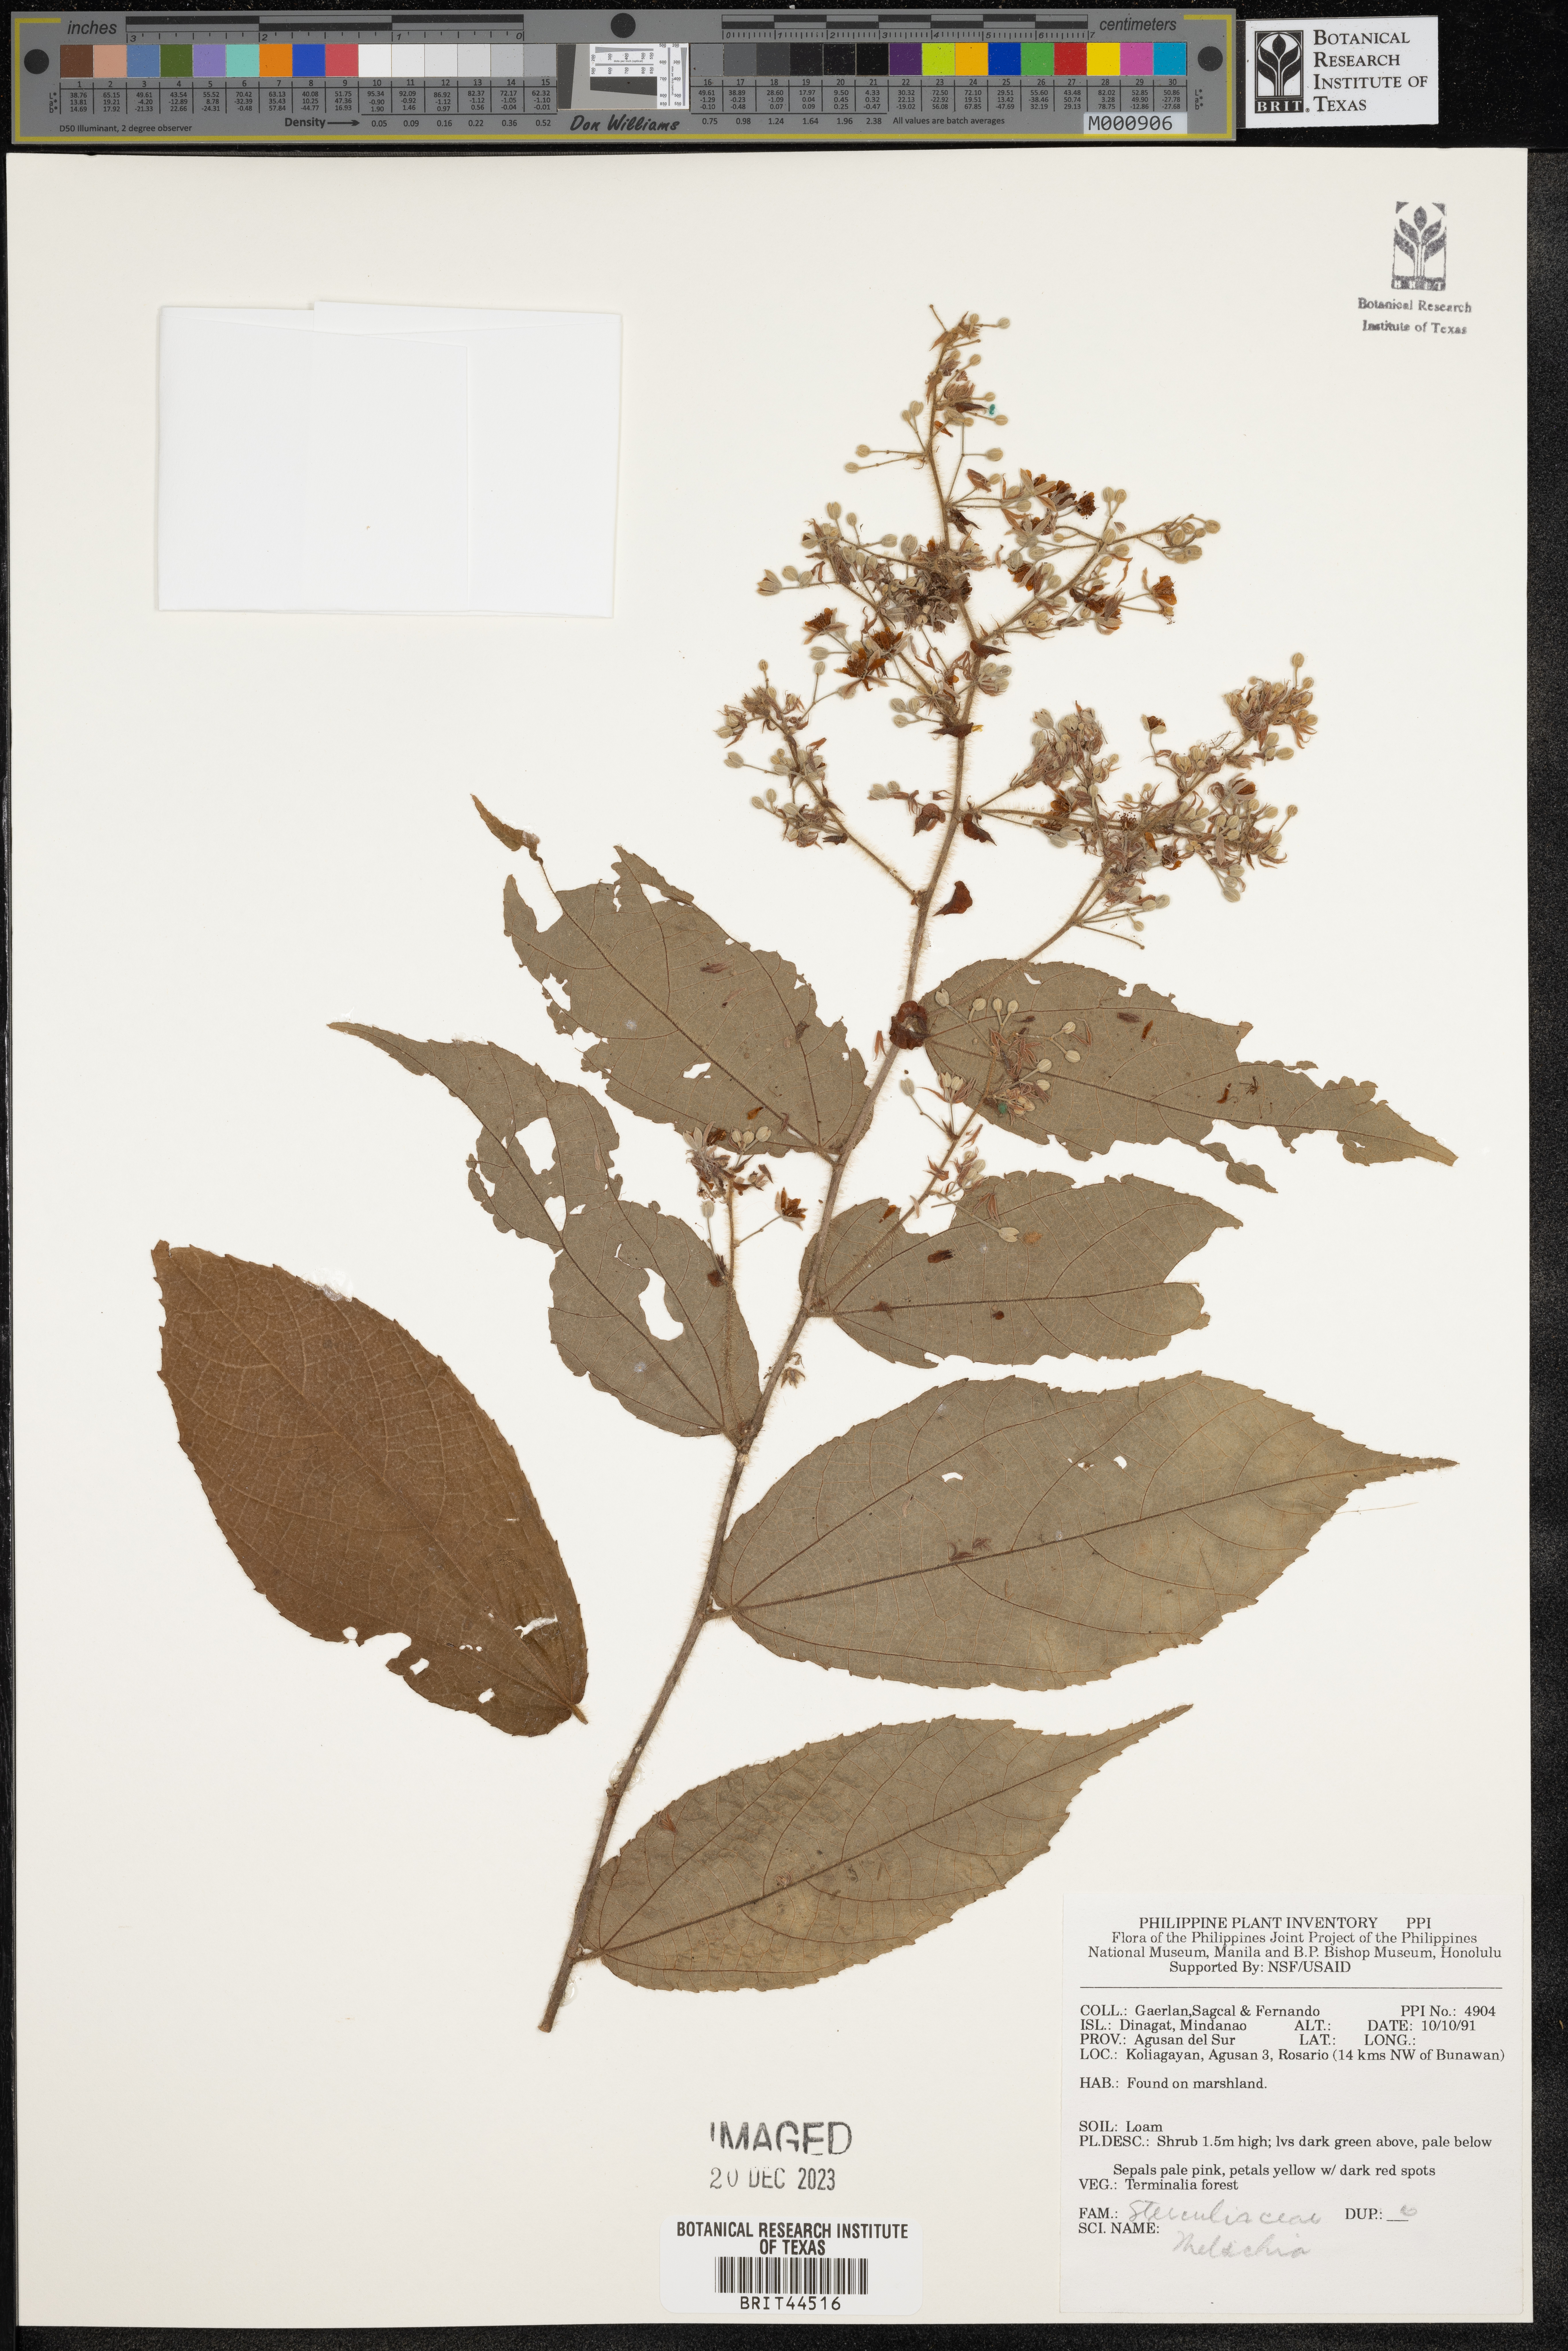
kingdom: Plantae
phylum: Tracheophyta
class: Magnoliopsida
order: Malvales
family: Malvaceae
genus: Melochia
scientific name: Melochia
